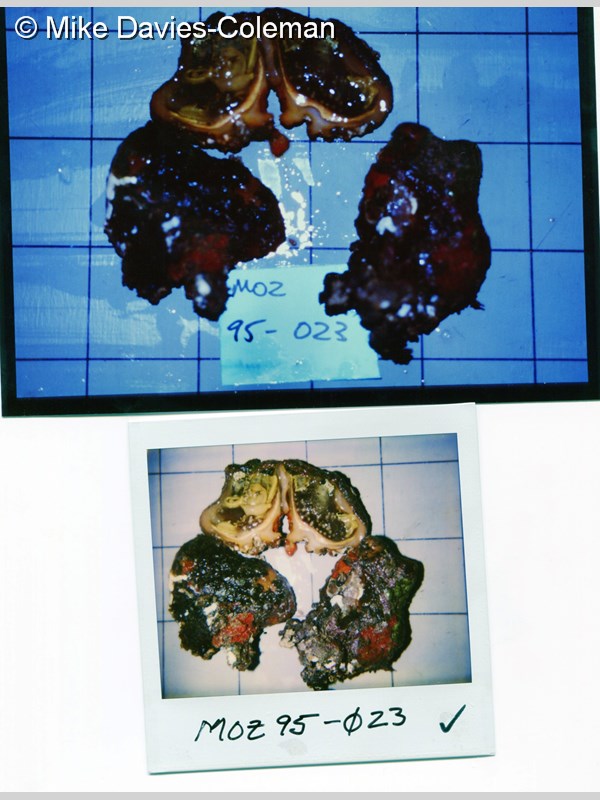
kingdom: Animalia
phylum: Chordata
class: Ascidiacea
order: Stolidobranchia
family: Pyuridae
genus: Pyura
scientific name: Pyura
